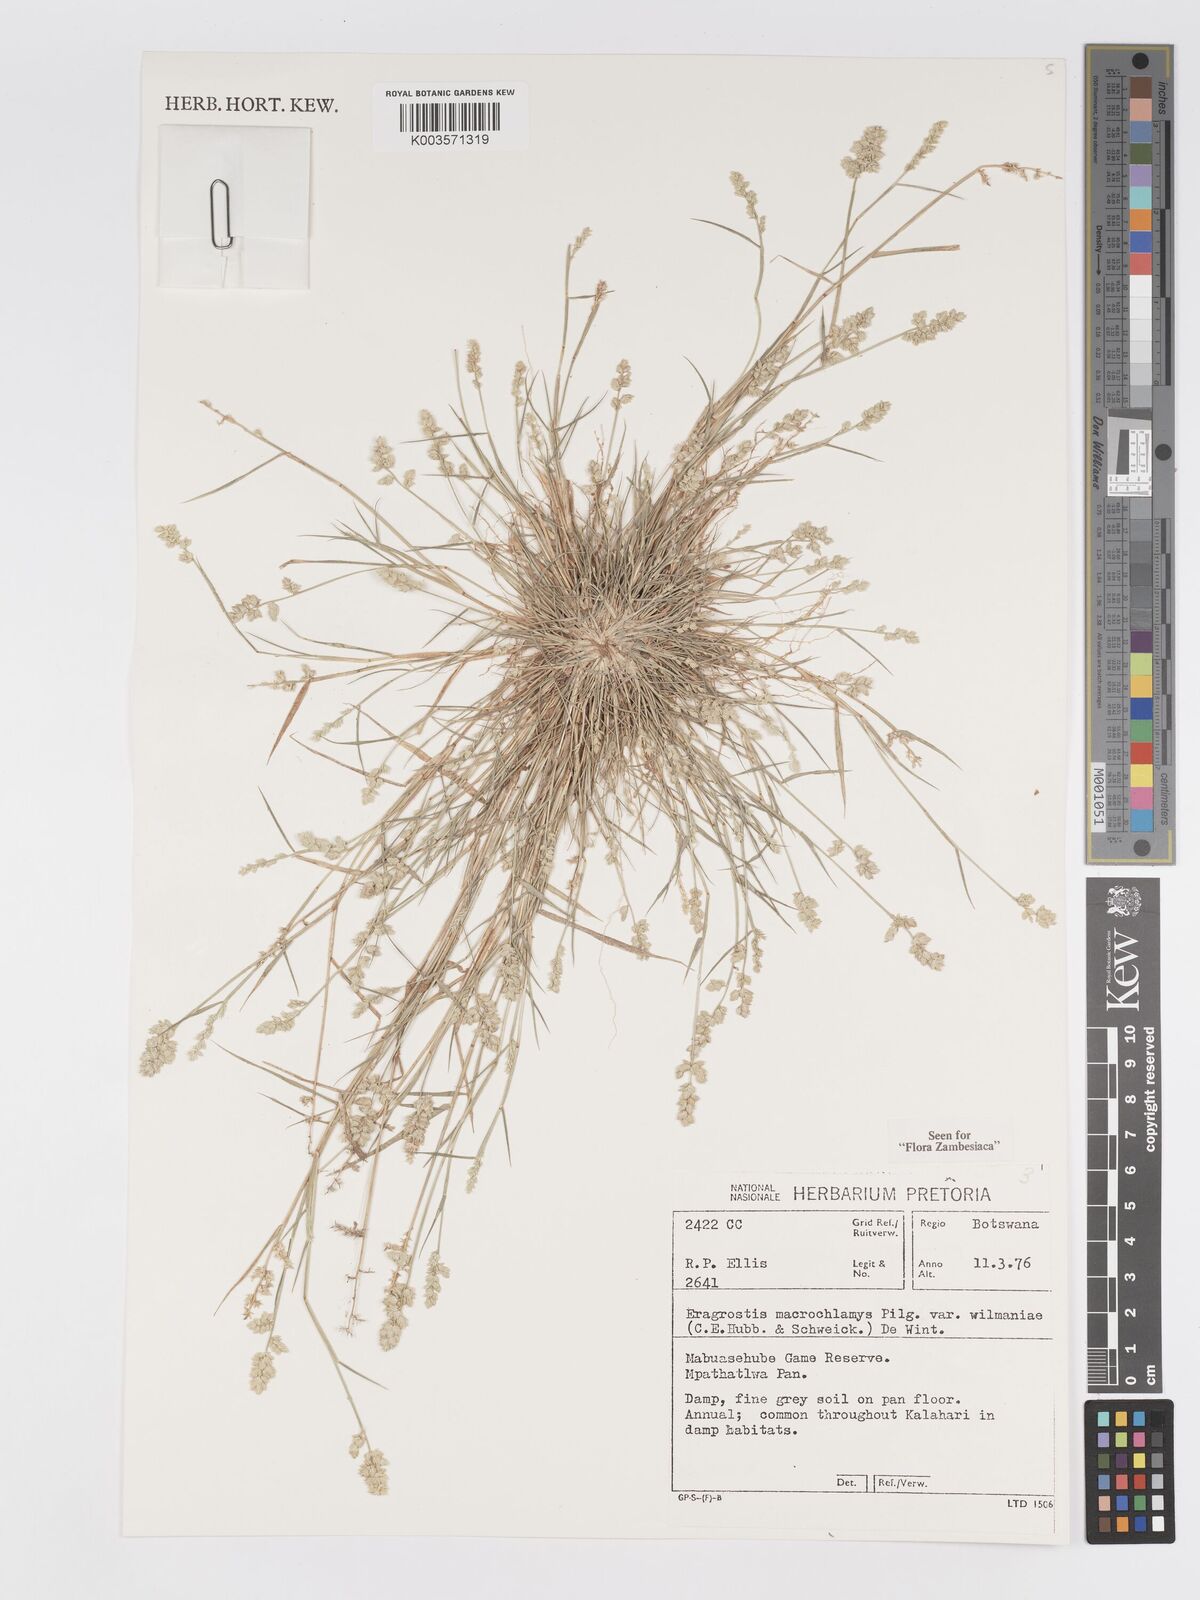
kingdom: Plantae
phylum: Tracheophyta
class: Liliopsida
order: Poales
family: Poaceae
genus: Eragrostis
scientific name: Eragrostis macrochlamys
